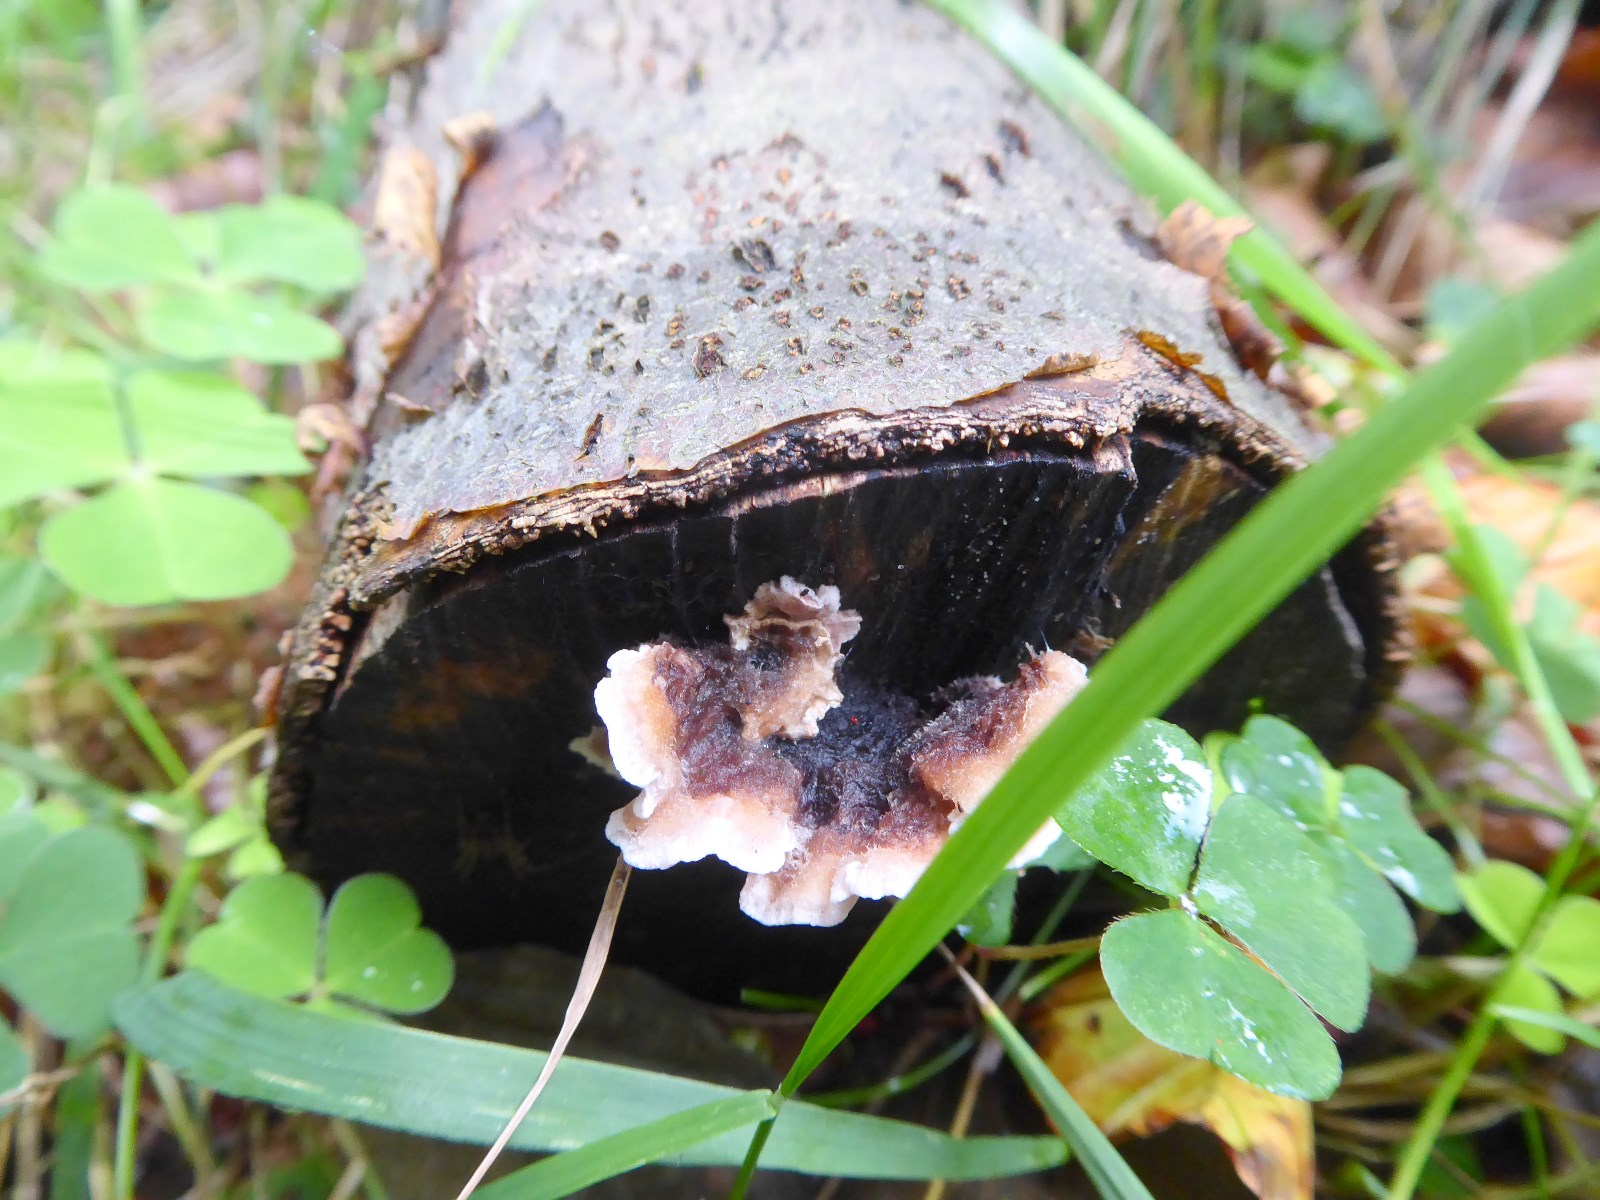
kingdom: Fungi
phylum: Basidiomycota
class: Agaricomycetes
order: Russulales
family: Hericiaceae
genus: Laxitextum
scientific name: Laxitextum bicolor
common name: tvefarvet filtskind
